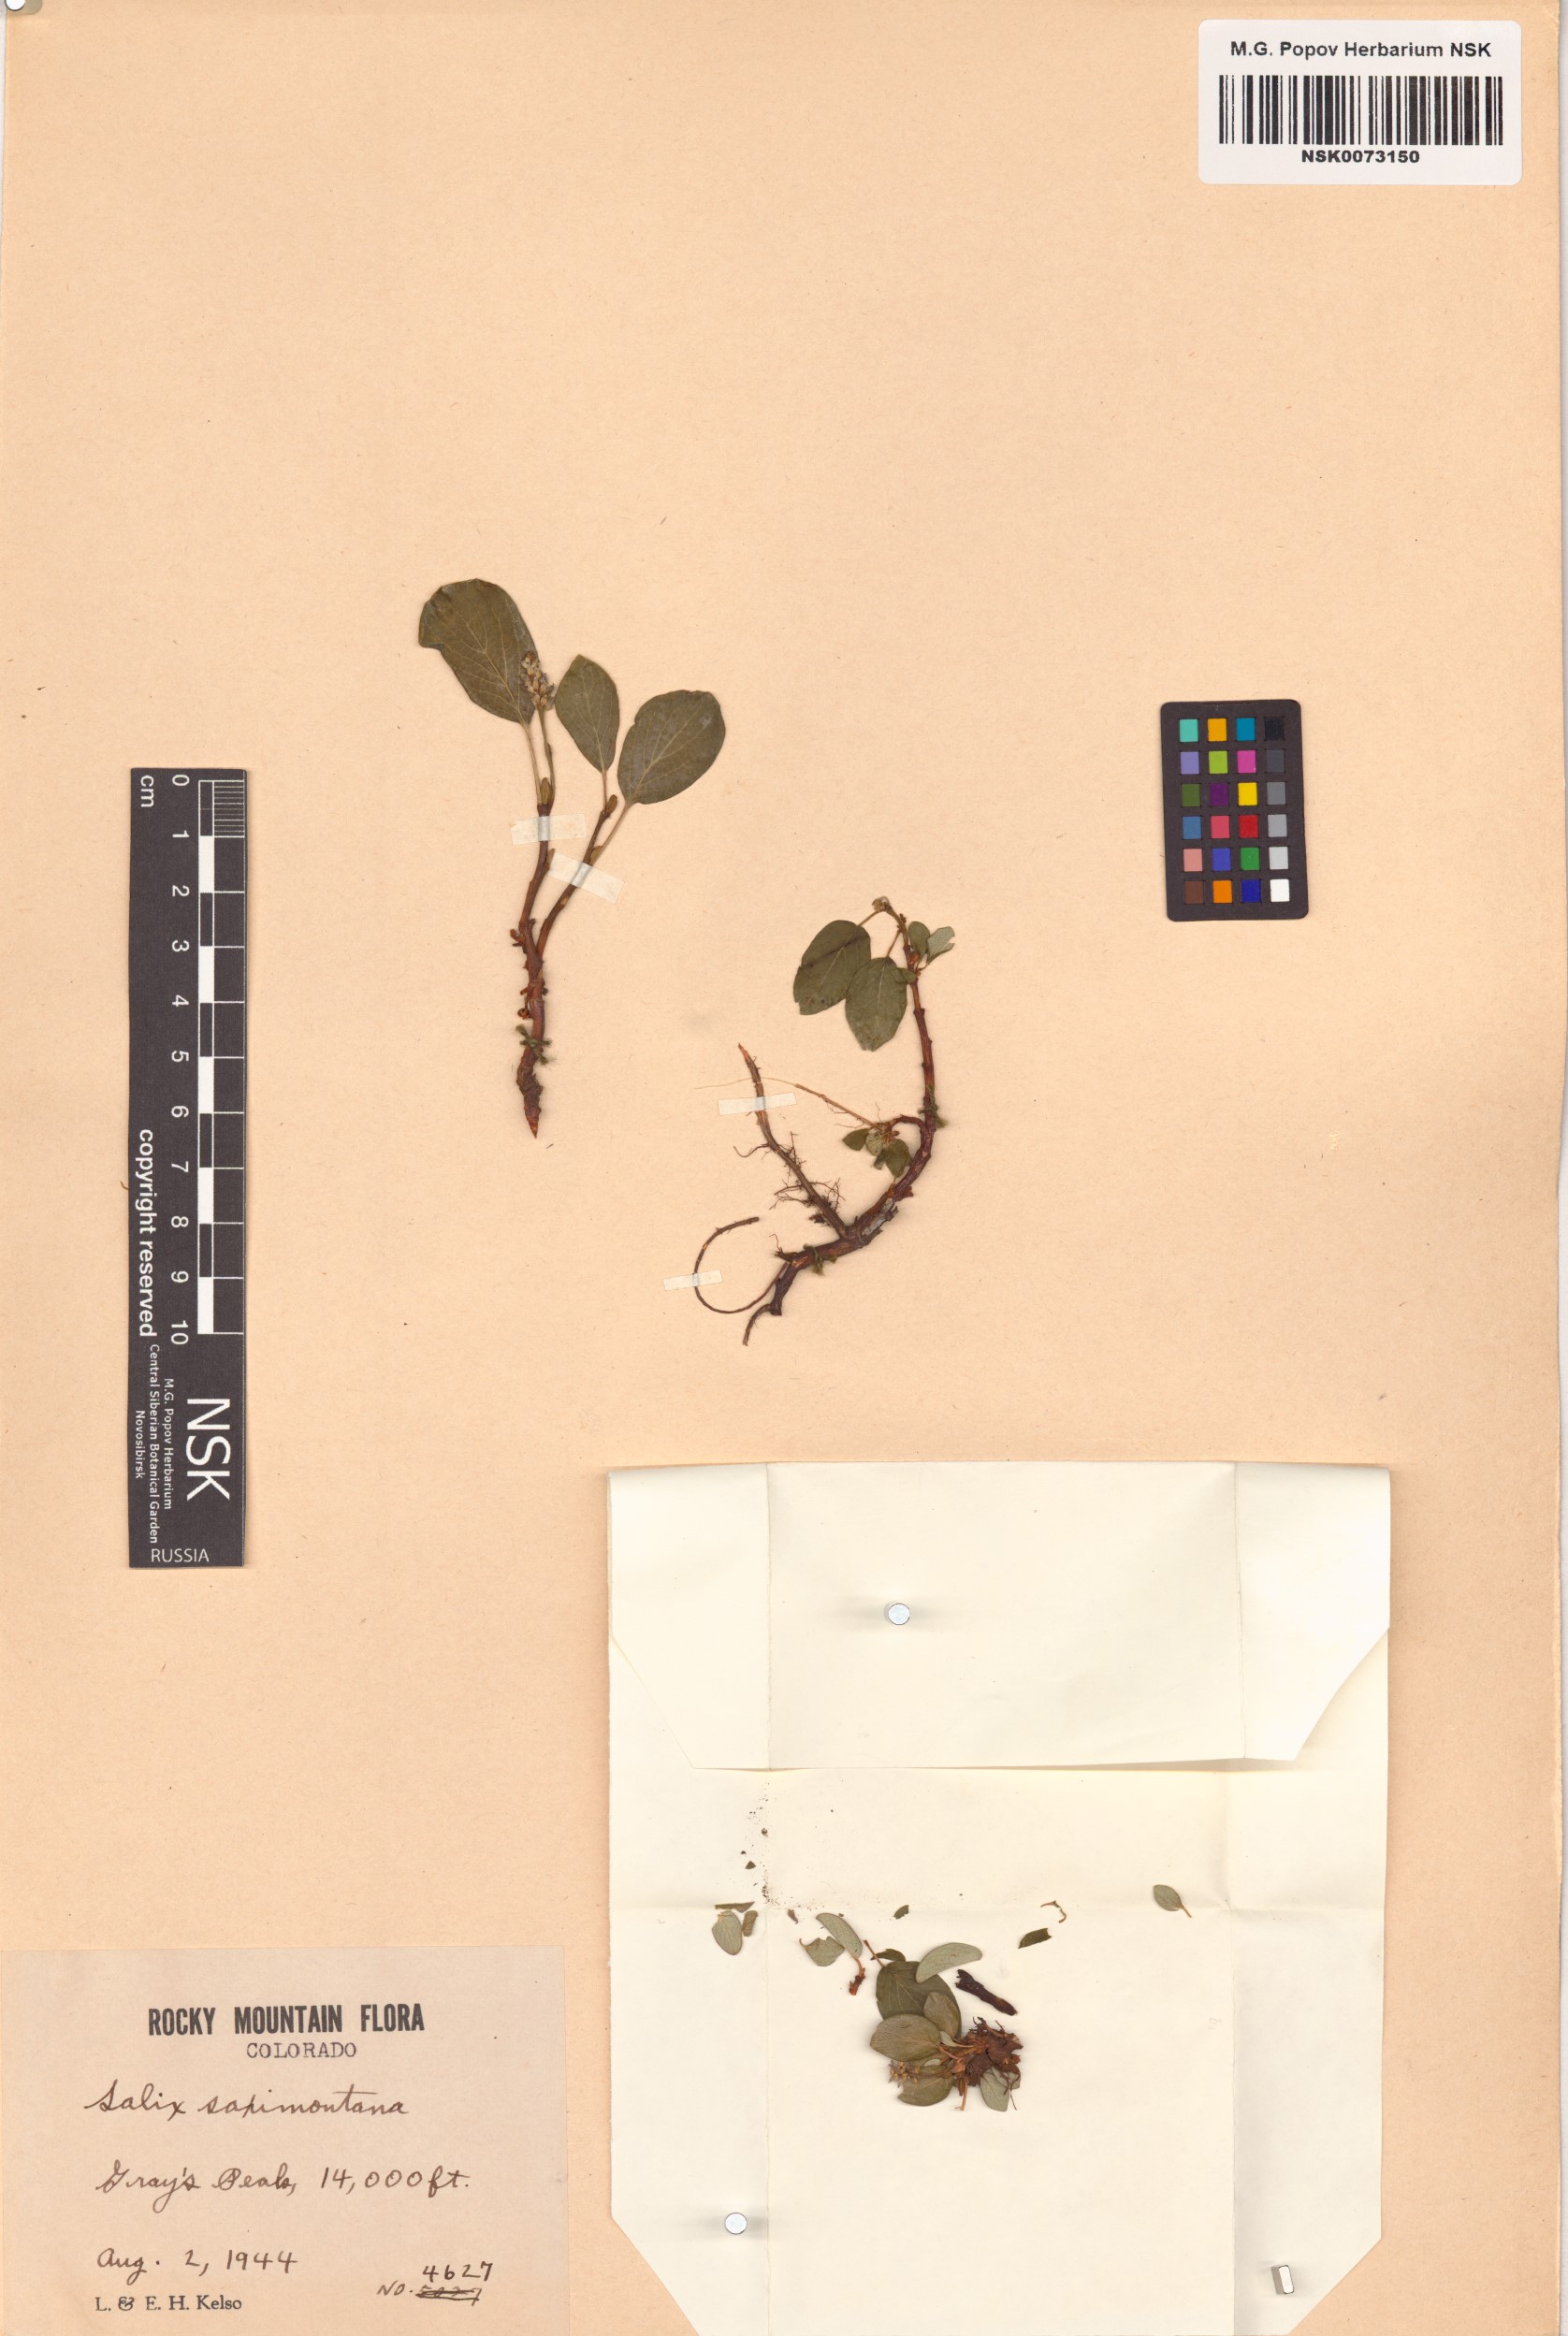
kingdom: Plantae
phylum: Tracheophyta
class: Magnoliopsida
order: Malpighiales
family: Salicaceae
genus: Salix
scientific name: Salix nivalis
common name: Dwarf snow willow
